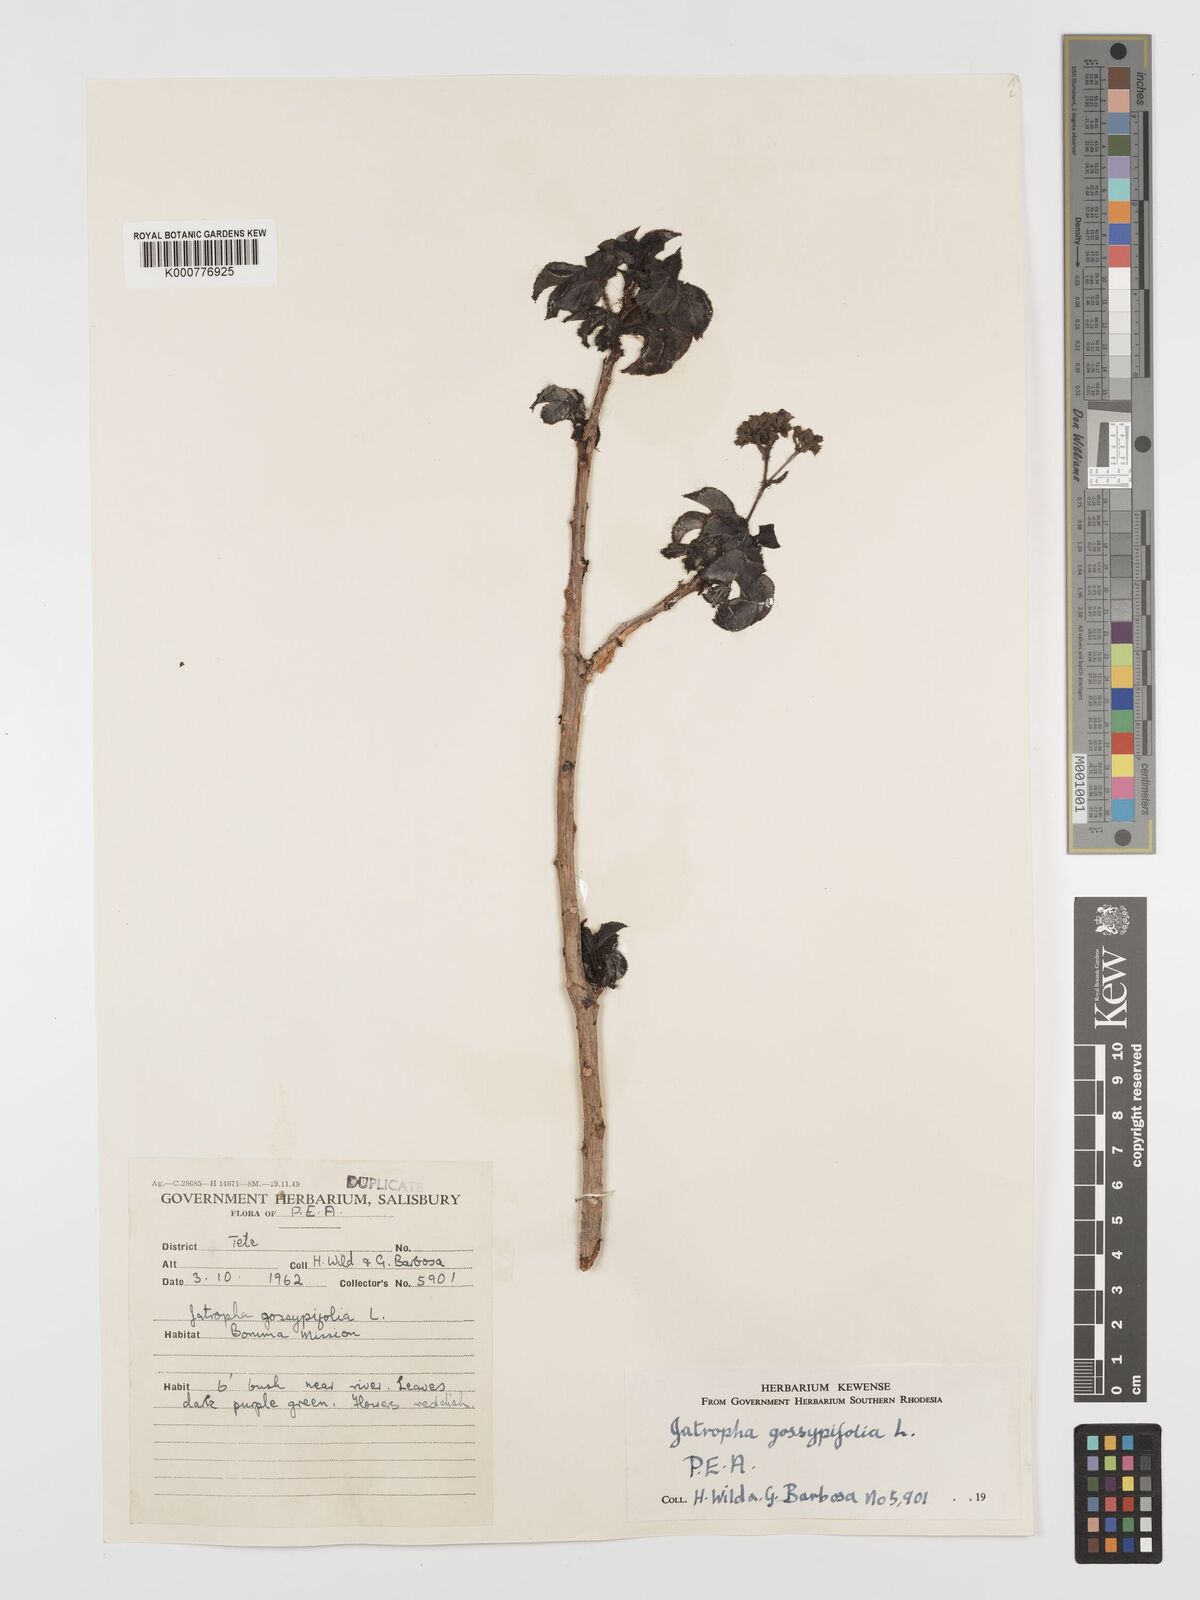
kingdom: Plantae
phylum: Tracheophyta
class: Magnoliopsida
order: Malpighiales
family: Euphorbiaceae
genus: Jatropha
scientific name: Jatropha gossypiifolia
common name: Bellyache bush
